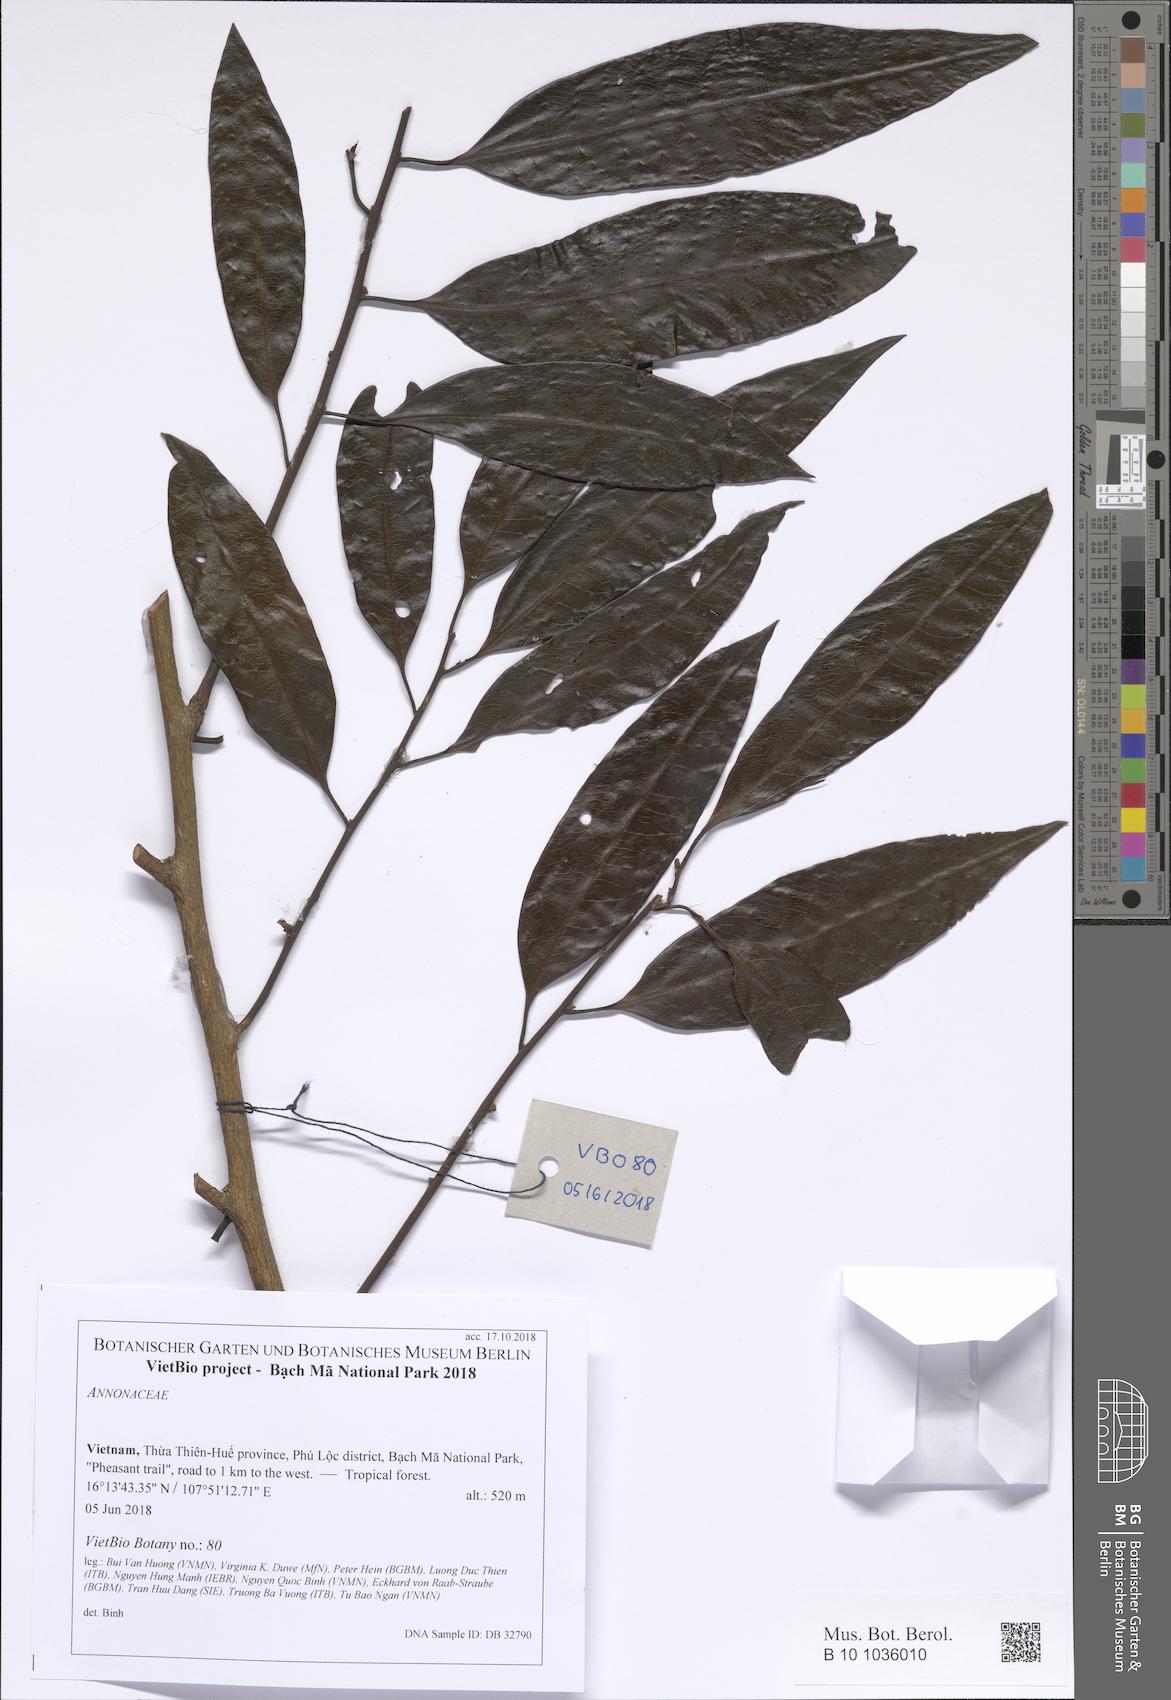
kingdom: Plantae
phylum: Tracheophyta
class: Magnoliopsida
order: Magnoliales
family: Annonaceae
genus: Goniothalamus
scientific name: Goniothalamus gabriacianus
